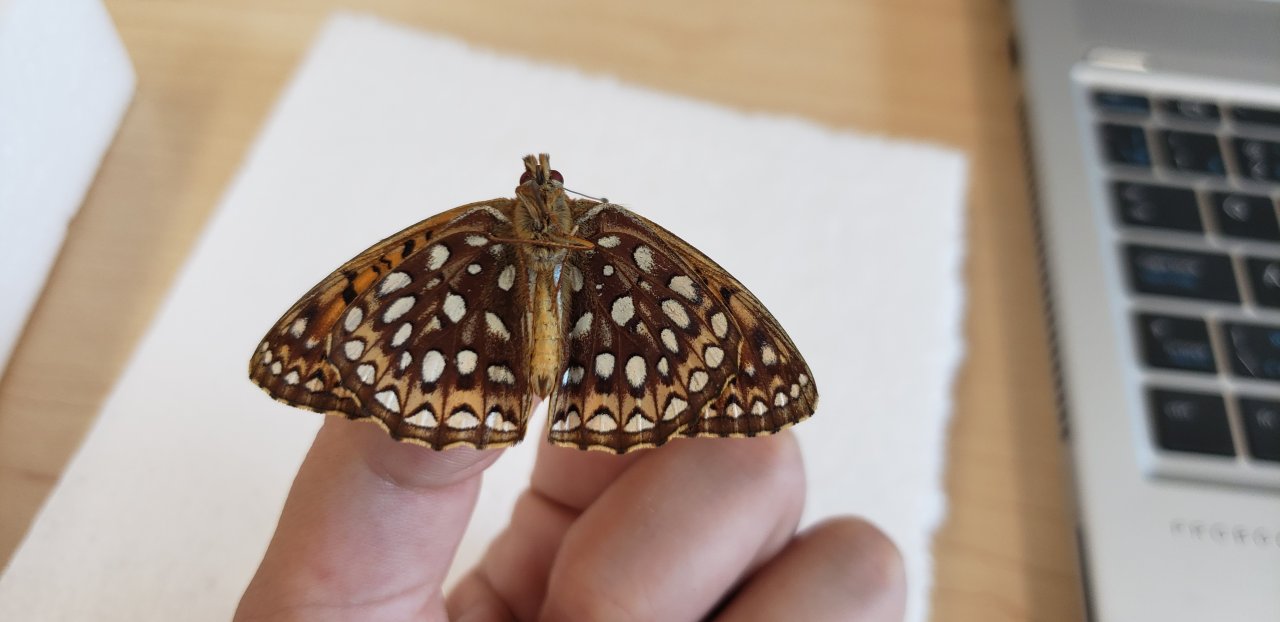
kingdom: Animalia
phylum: Arthropoda
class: Insecta
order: Lepidoptera
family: Nymphalidae
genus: Speyeria
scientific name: Speyeria atlantis
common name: Atlantis Fritillary
